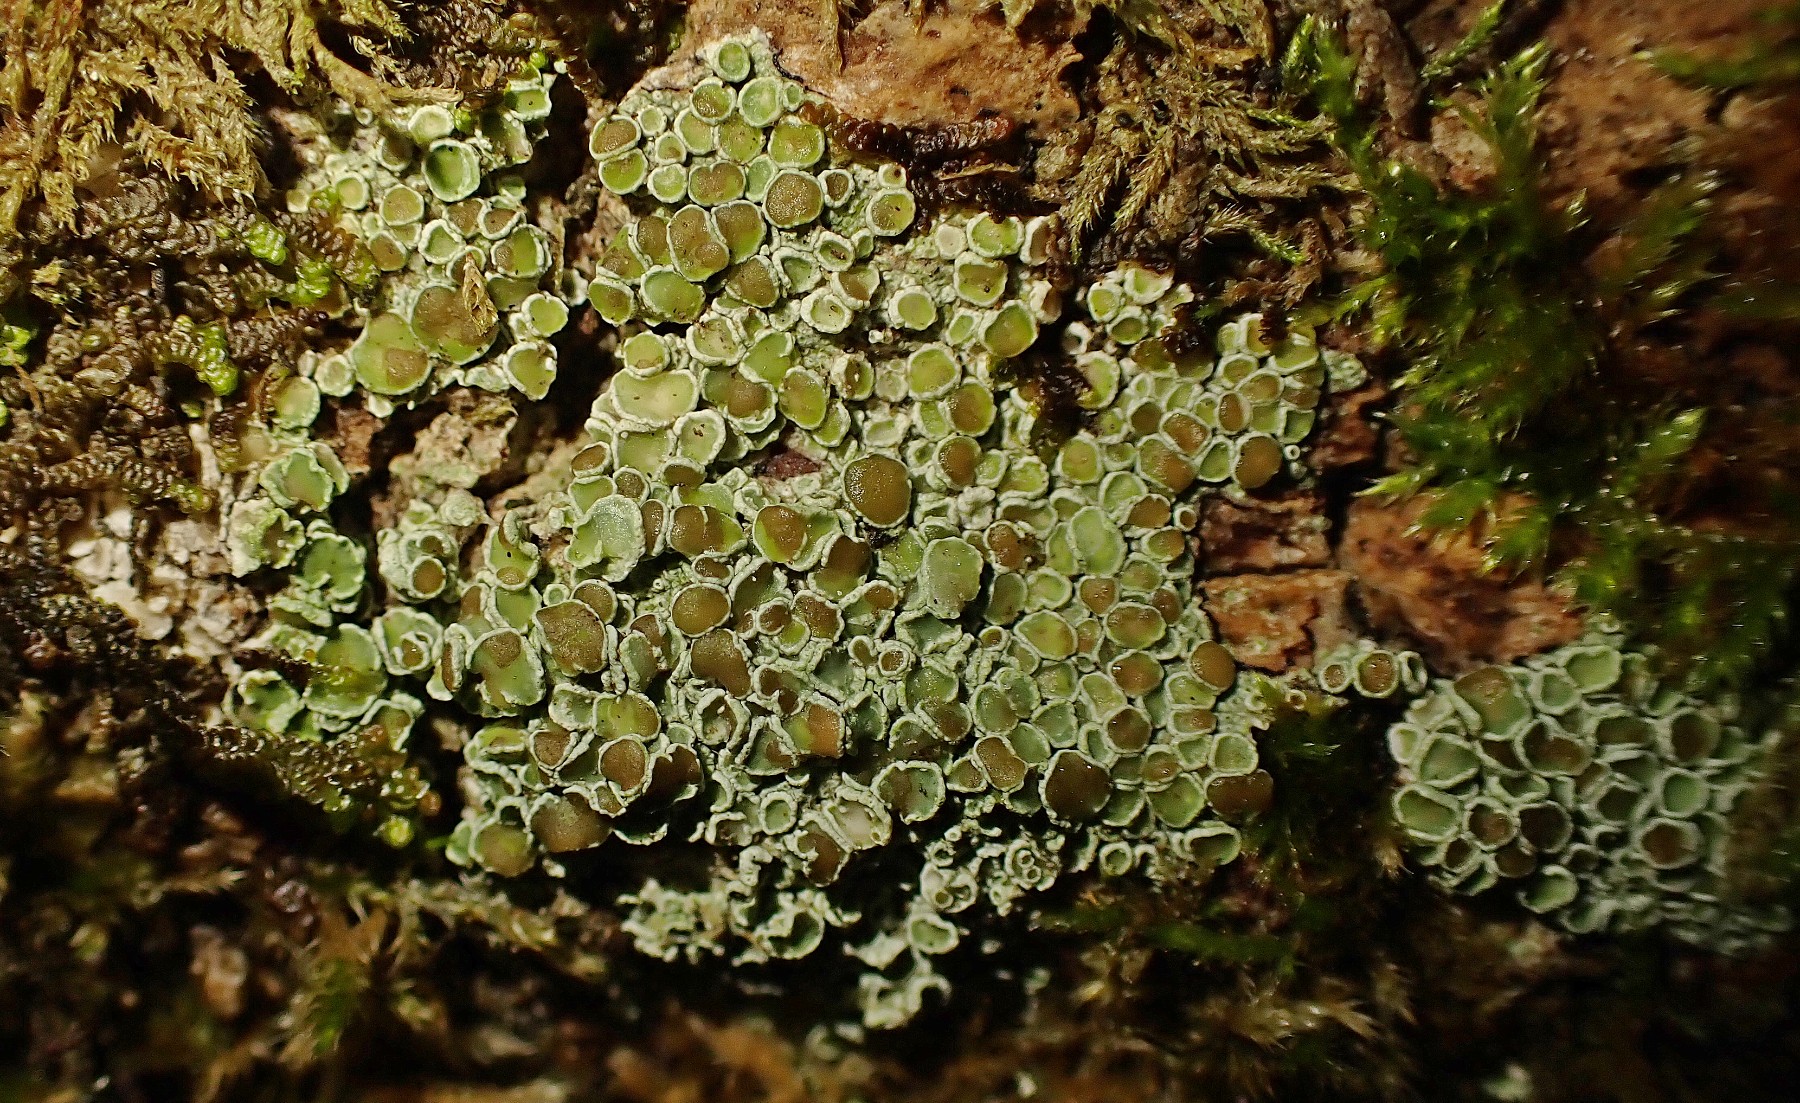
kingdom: Fungi
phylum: Ascomycota
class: Lecanoromycetes
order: Lecanorales
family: Lecanoraceae
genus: Lecanora
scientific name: Lecanora chlarotera
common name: brun kantskivelav
